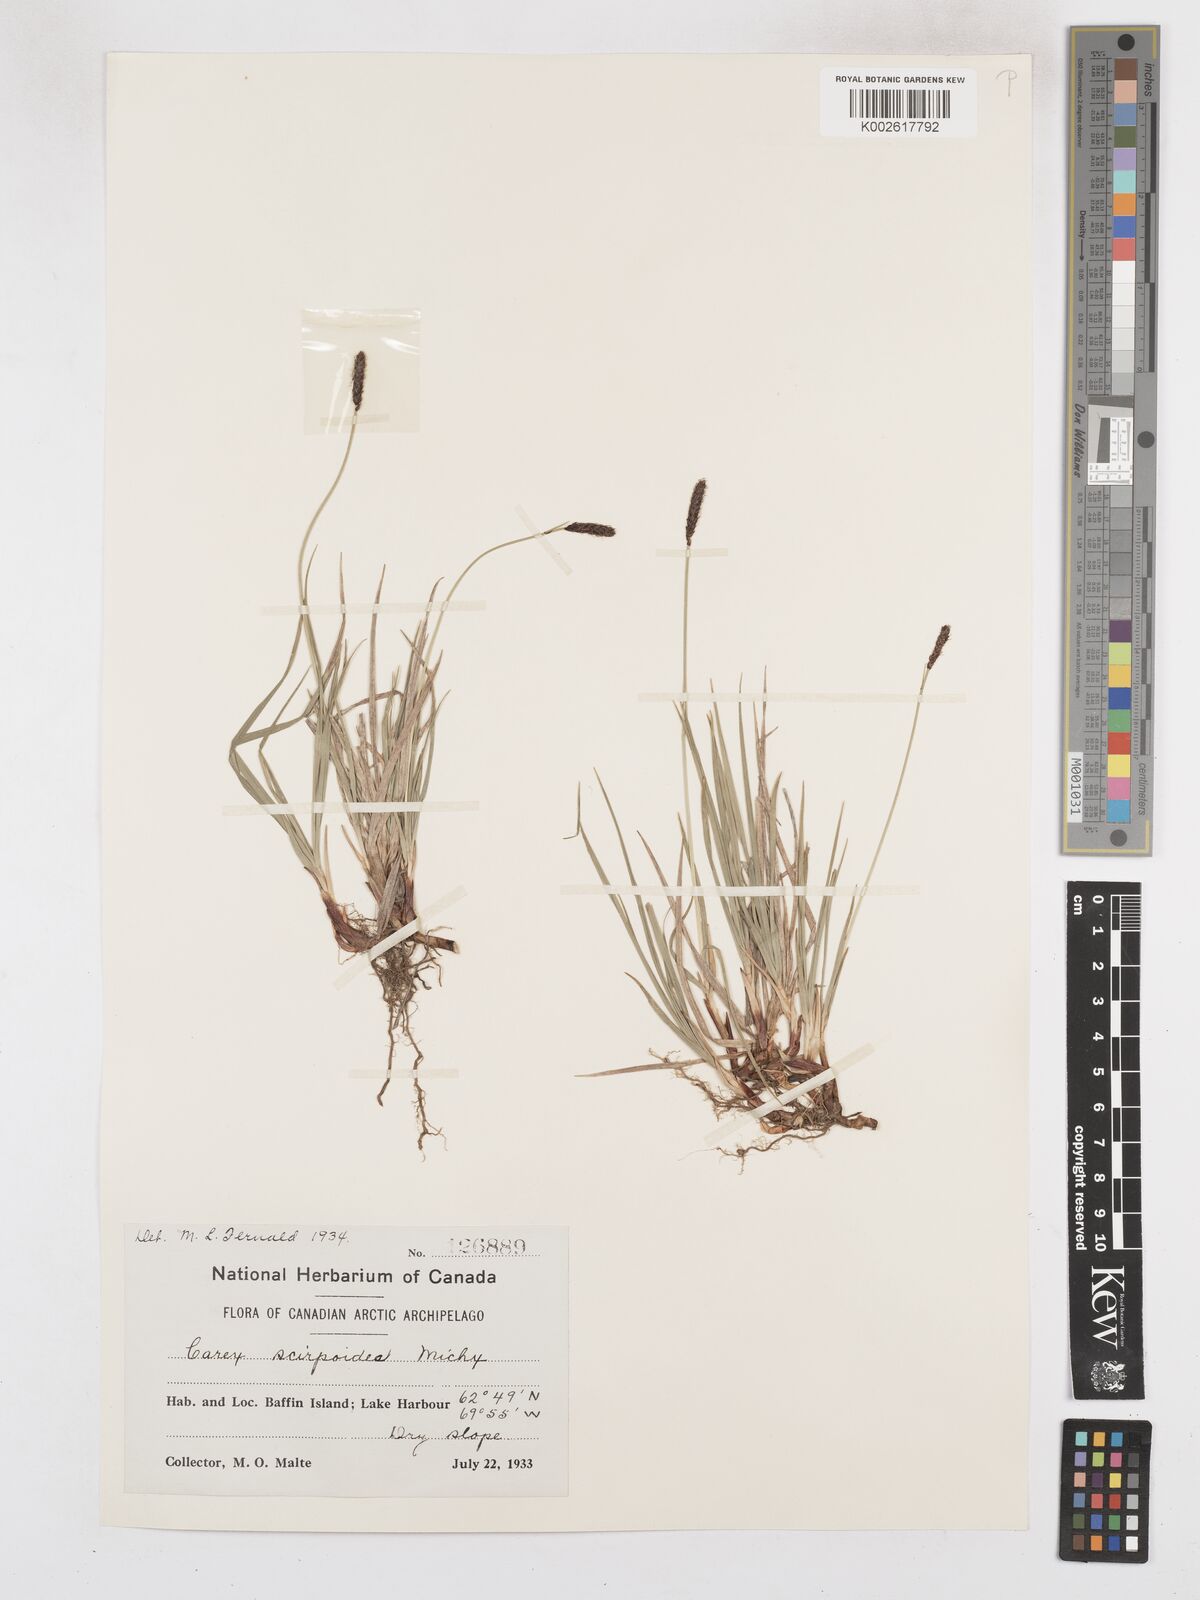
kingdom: Plantae
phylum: Tracheophyta
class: Liliopsida
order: Poales
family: Cyperaceae
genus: Carex
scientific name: Carex scirpoidea
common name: Canada single-spike sedge
